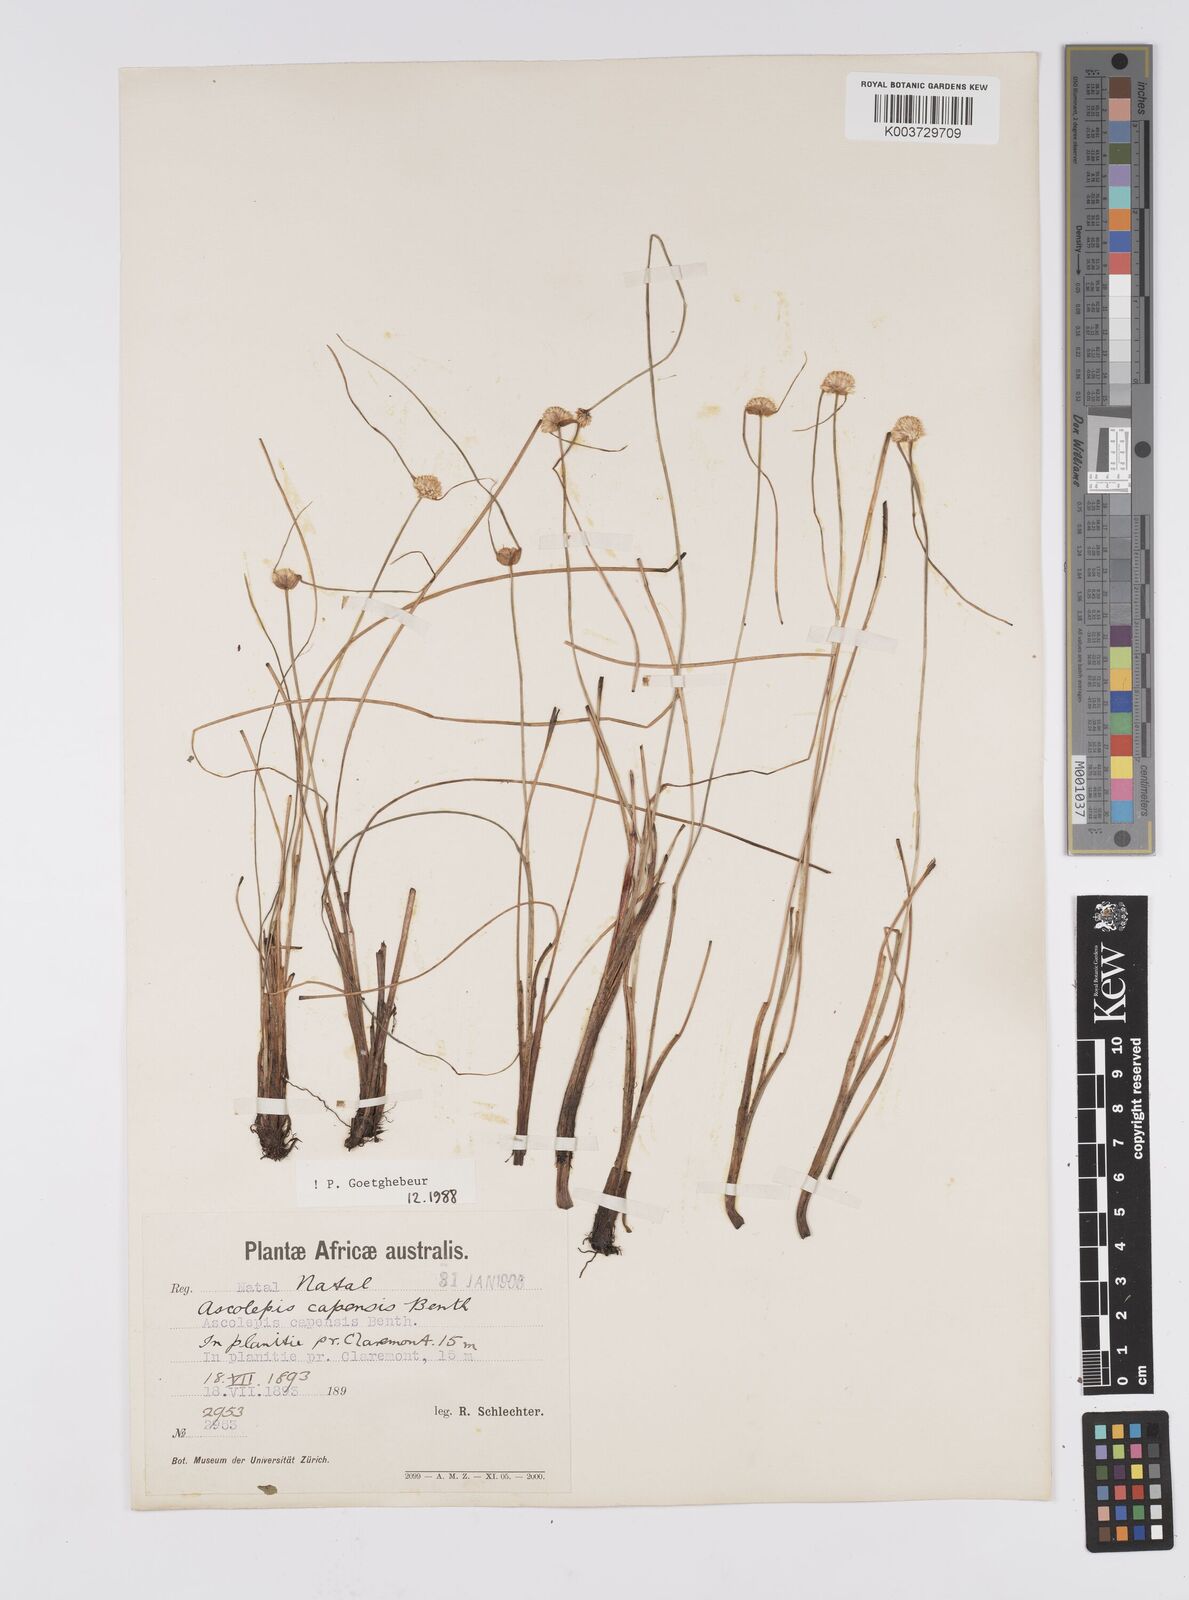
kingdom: Plantae
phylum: Tracheophyta
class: Liliopsida
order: Poales
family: Cyperaceae
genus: Cyperus
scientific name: Cyperus capensis
